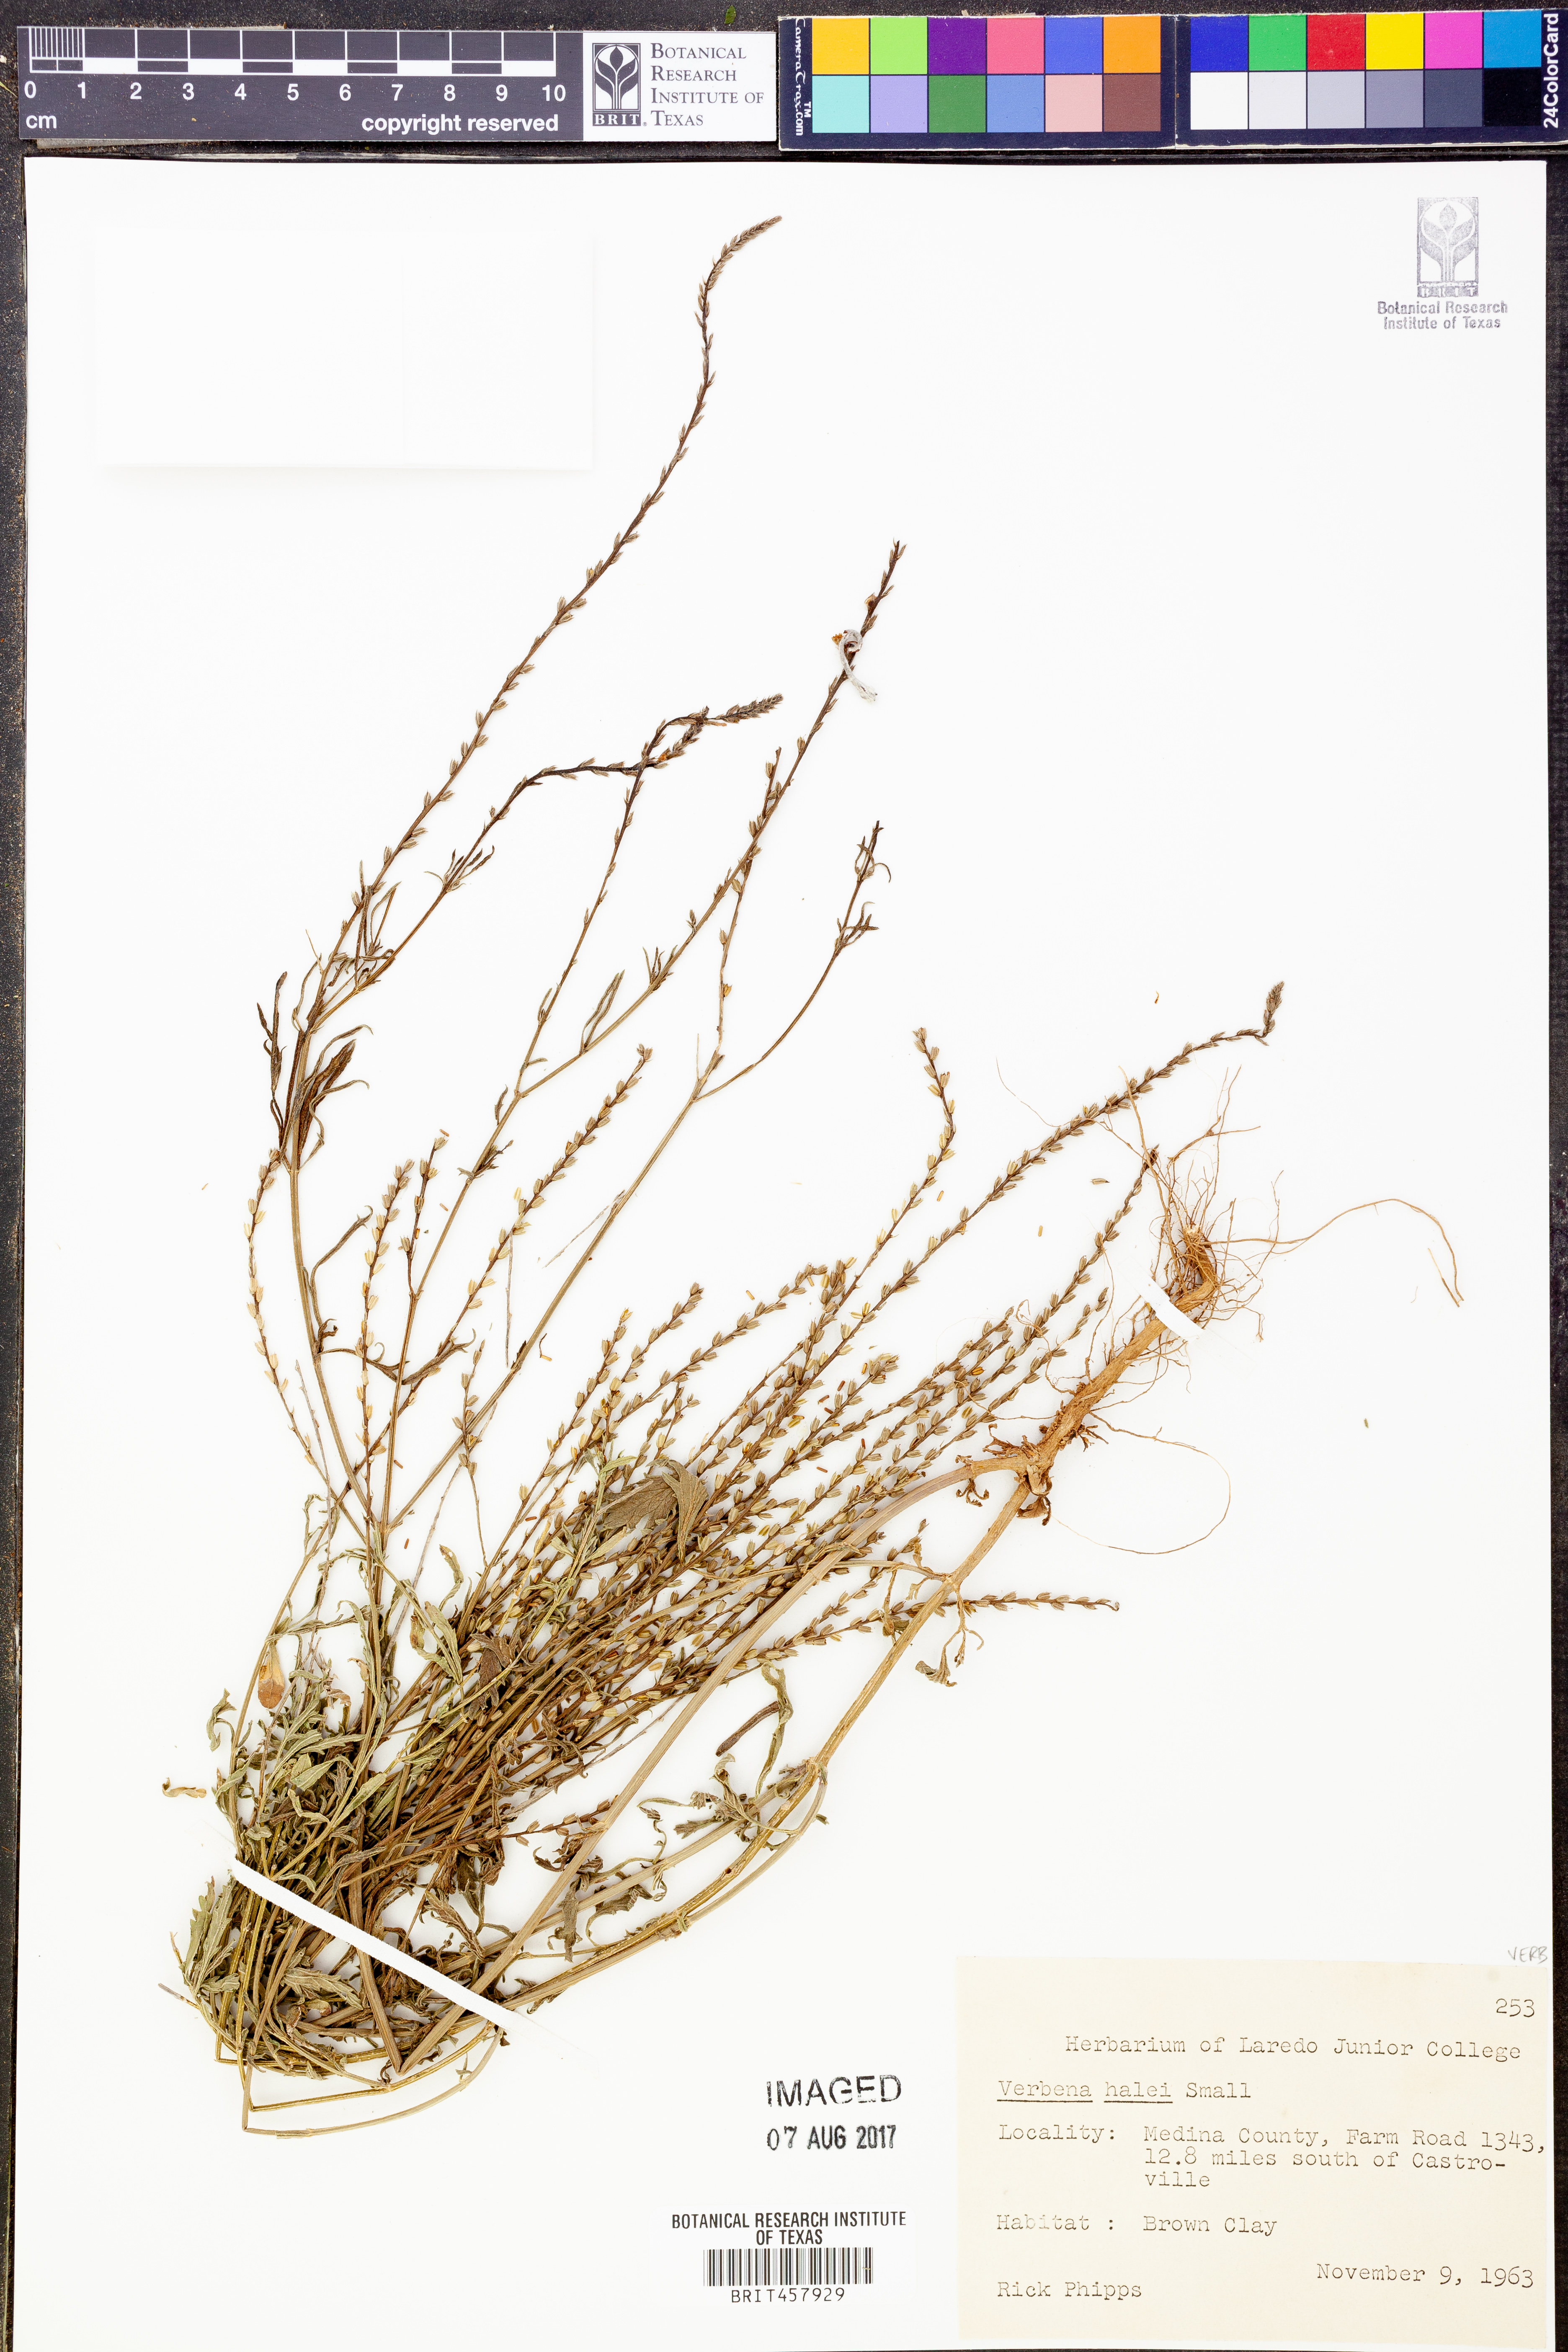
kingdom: Plantae
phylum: Tracheophyta
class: Magnoliopsida
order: Lamiales
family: Verbenaceae
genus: Verbena
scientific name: Verbena halei
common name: Texas vervain
